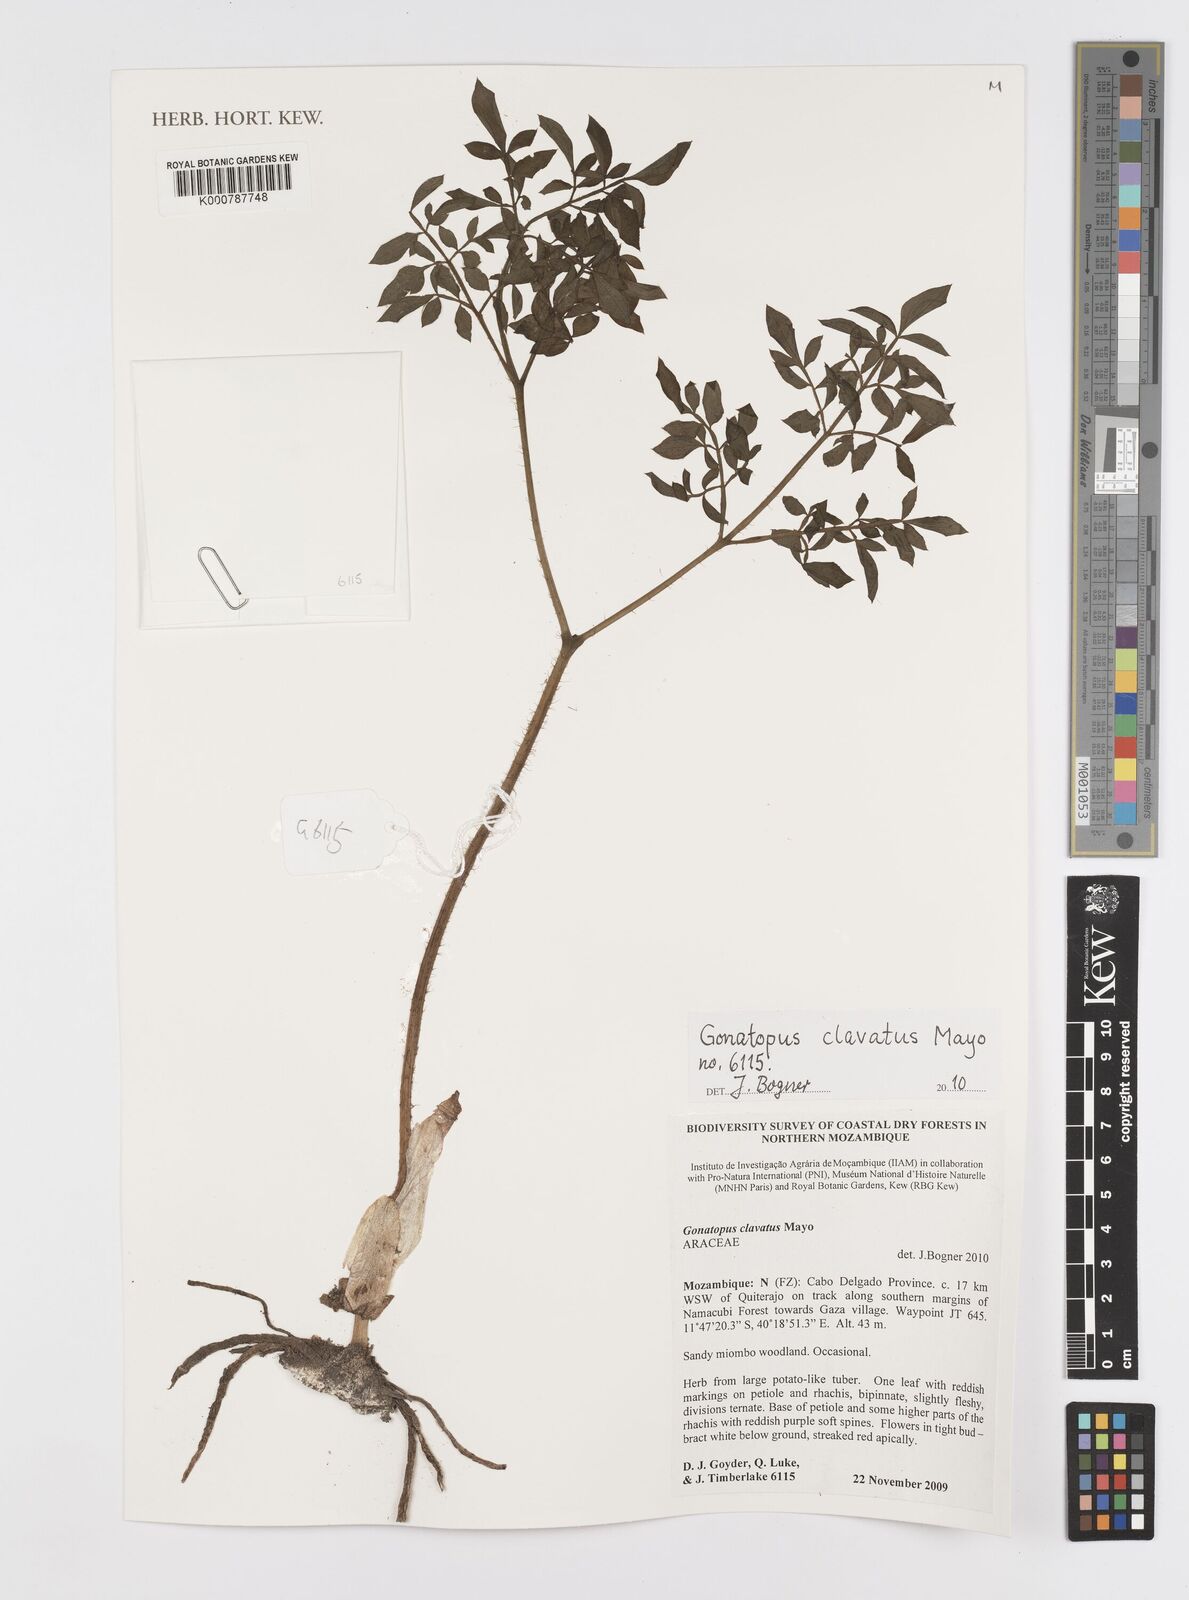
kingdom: Plantae
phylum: Tracheophyta
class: Liliopsida
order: Alismatales
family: Araceae
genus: Gonatopus
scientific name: Gonatopus clavatus
